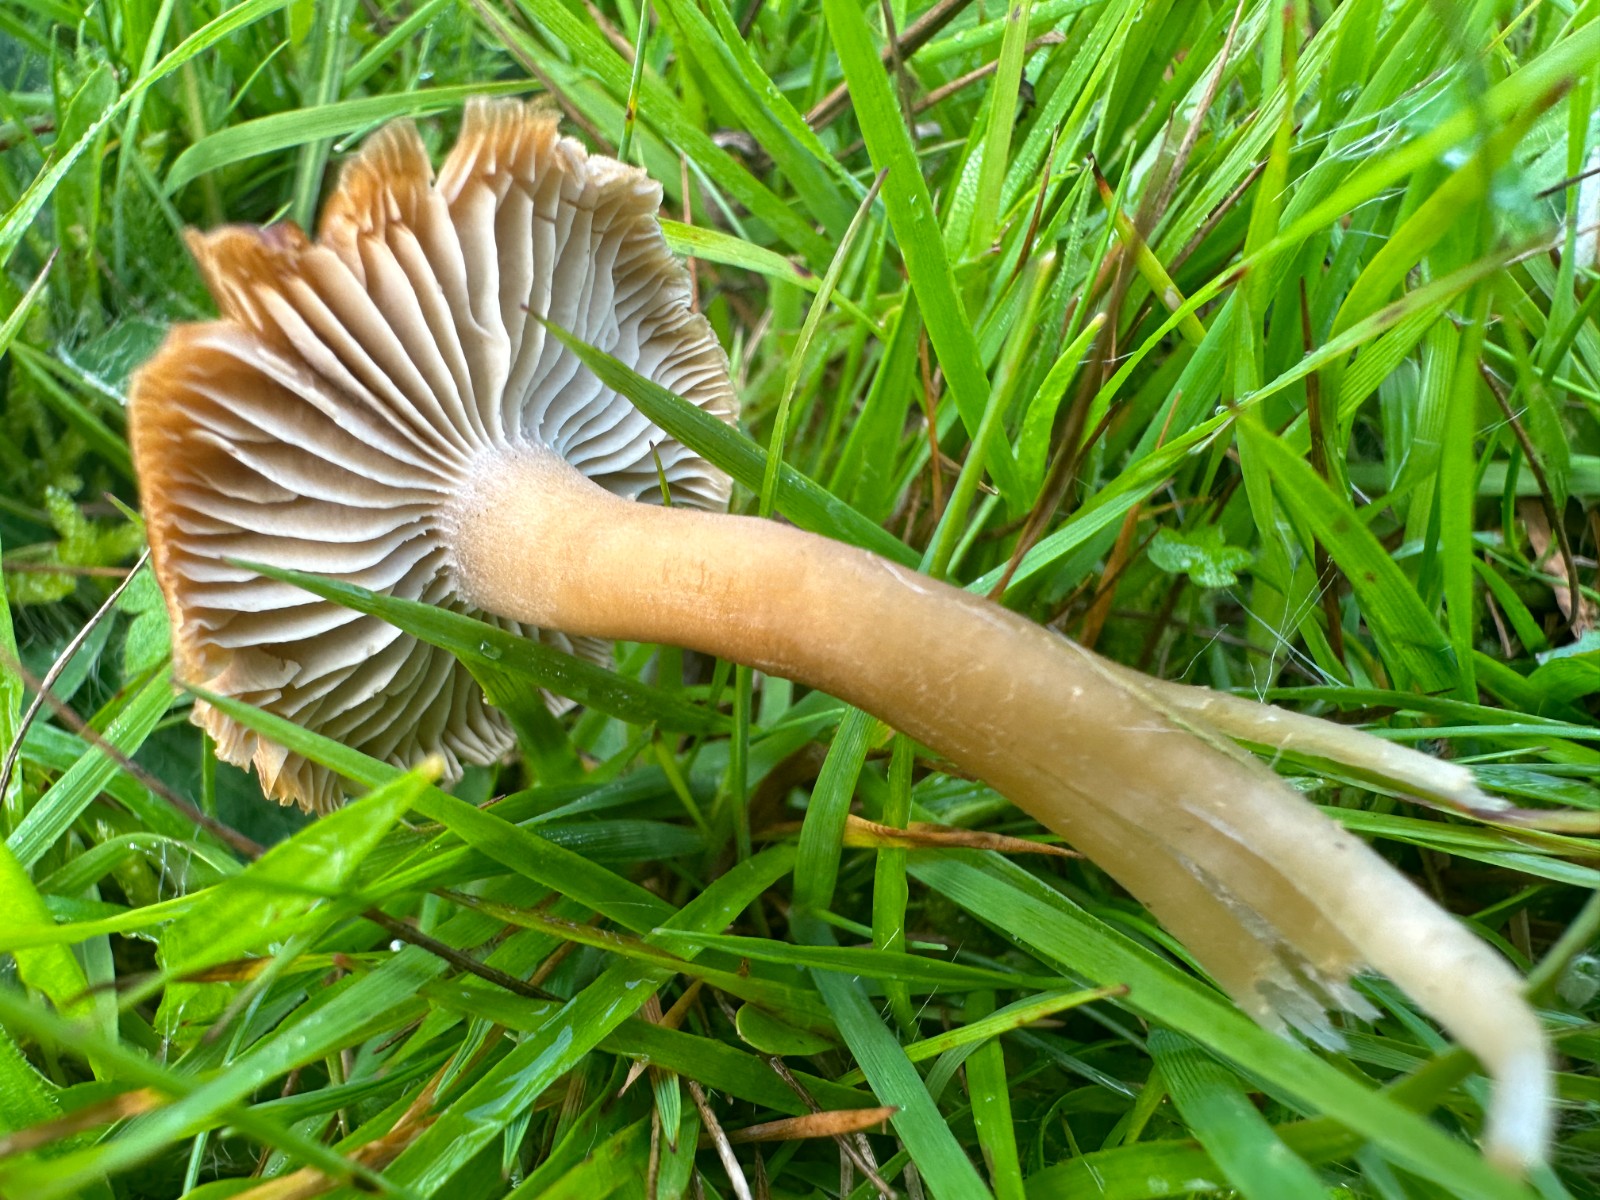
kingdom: Fungi
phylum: Basidiomycota
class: Agaricomycetes
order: Agaricales
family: Clavariaceae
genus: Camarophyllopsis
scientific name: Camarophyllopsis schulzeri
